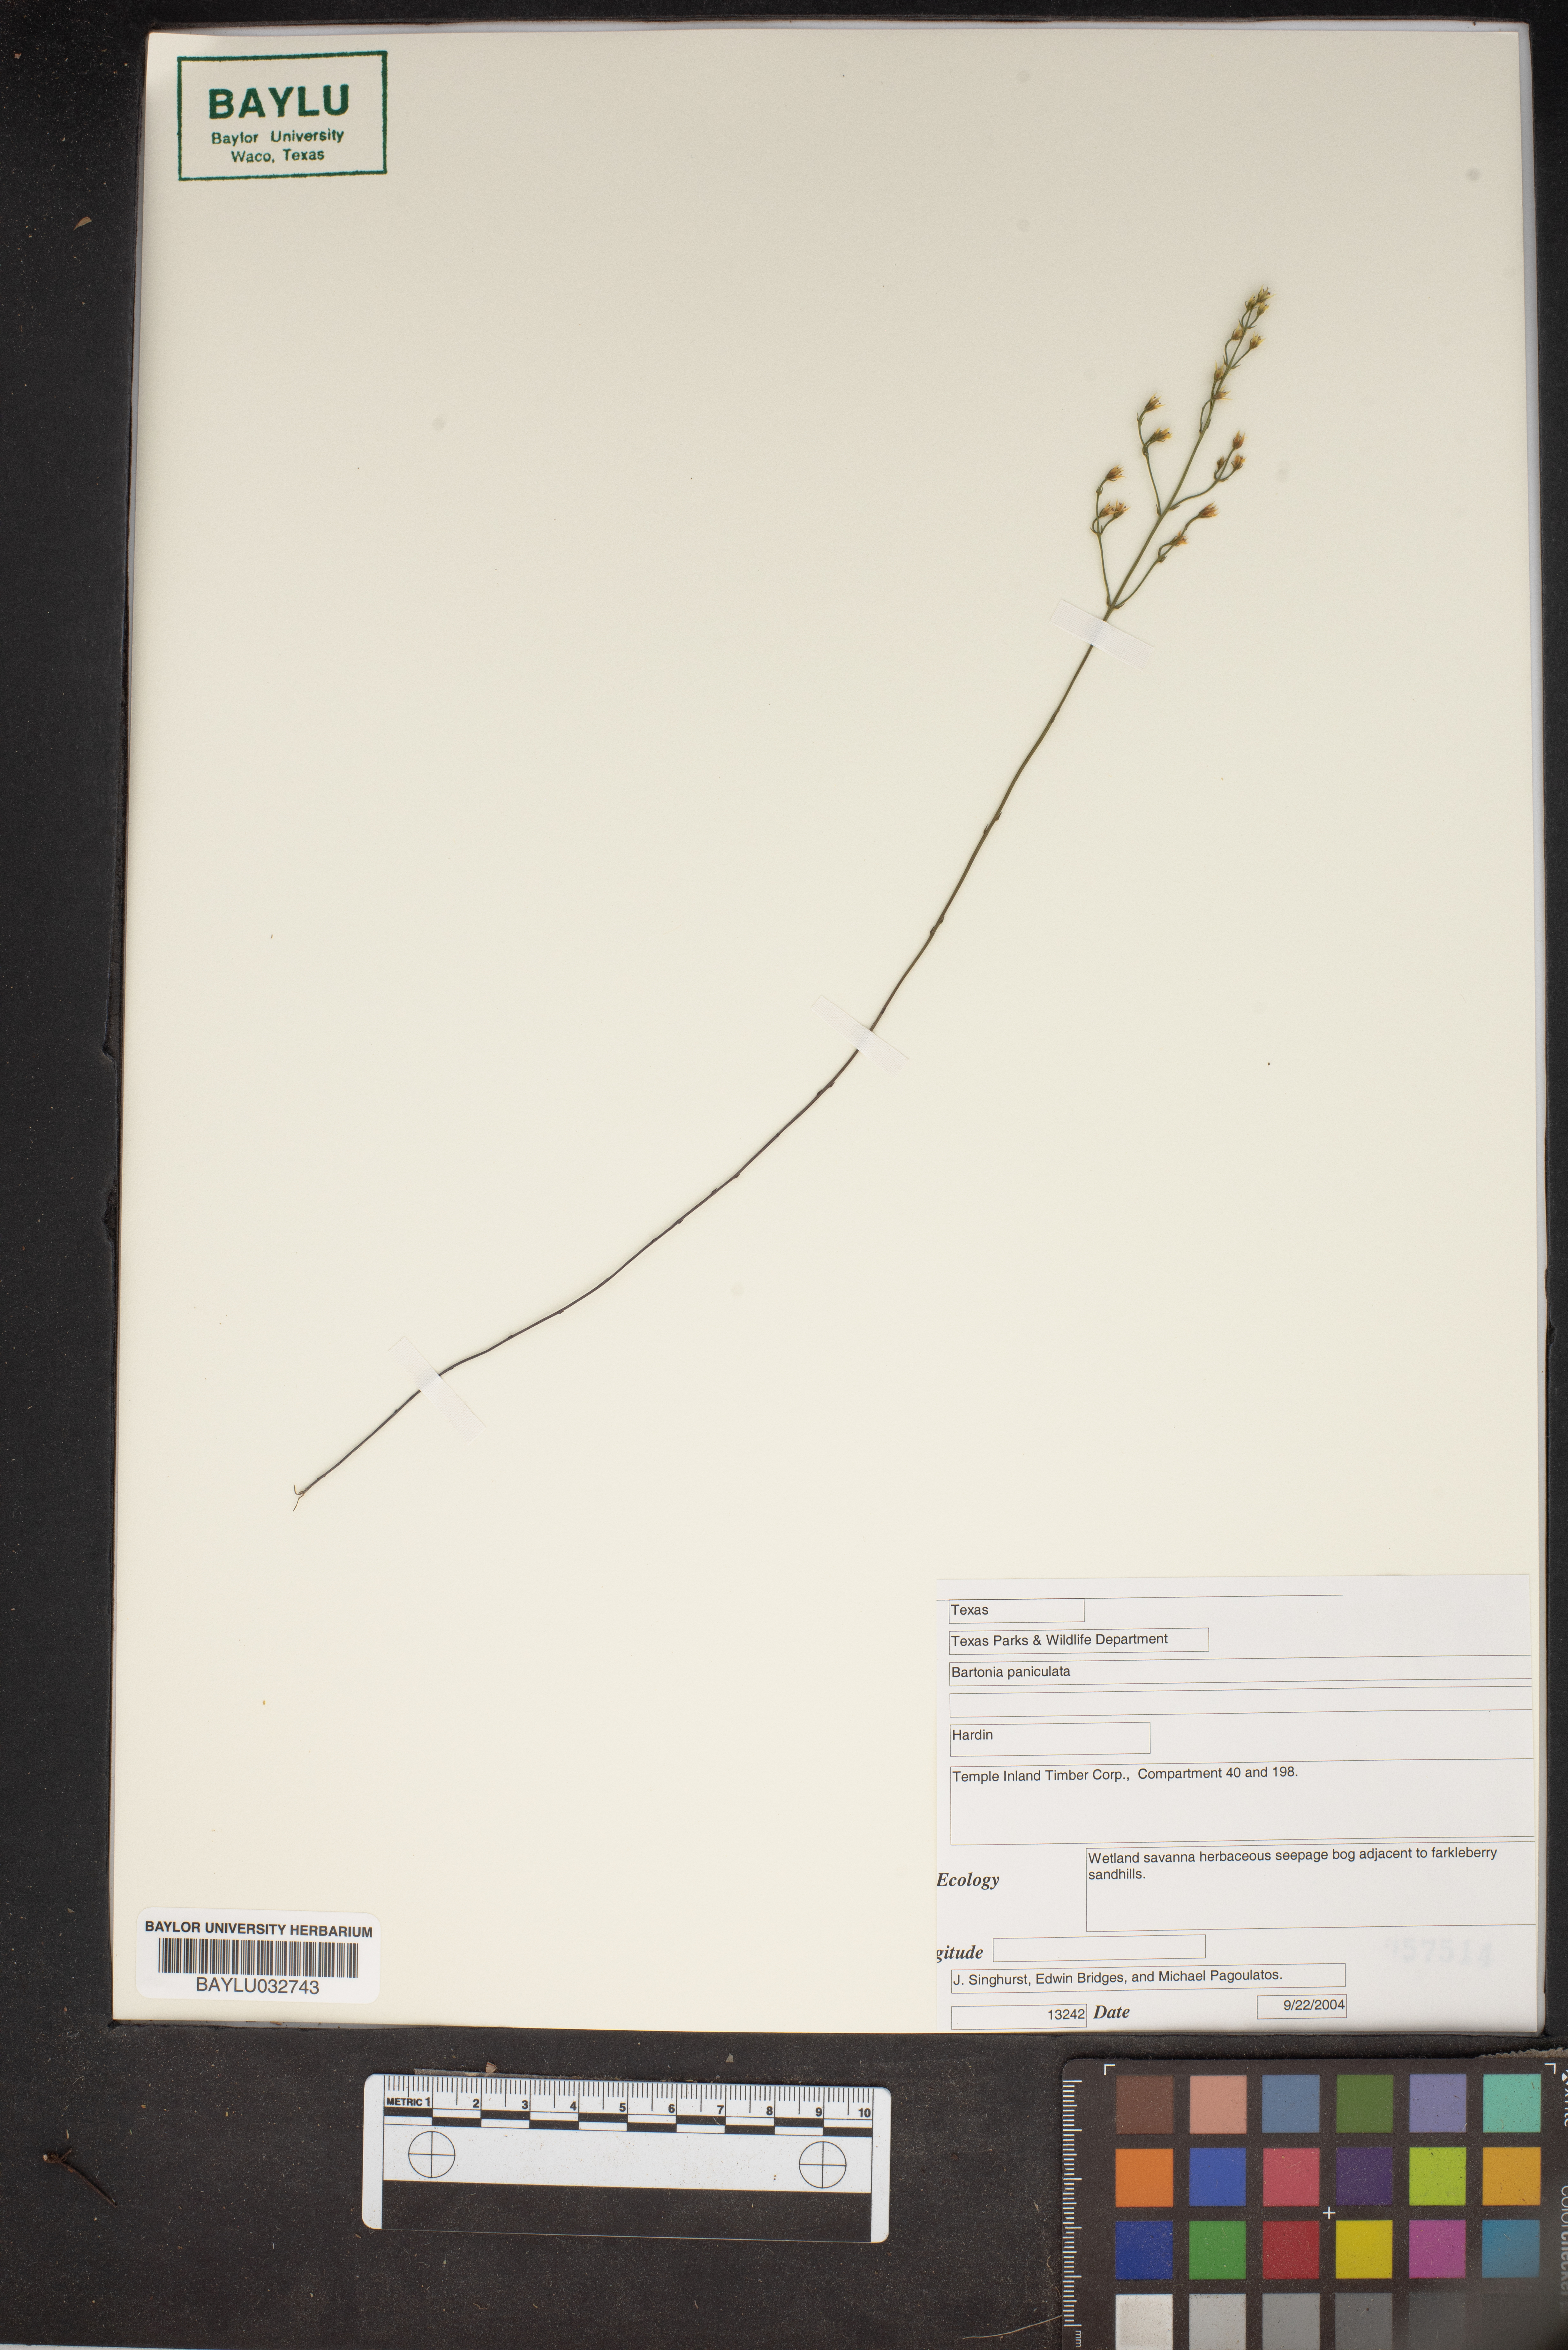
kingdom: Plantae
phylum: Tracheophyta
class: Magnoliopsida
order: Gentianales
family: Gentianaceae
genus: Bartonia
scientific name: Bartonia paniculata
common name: Branched bartonia
